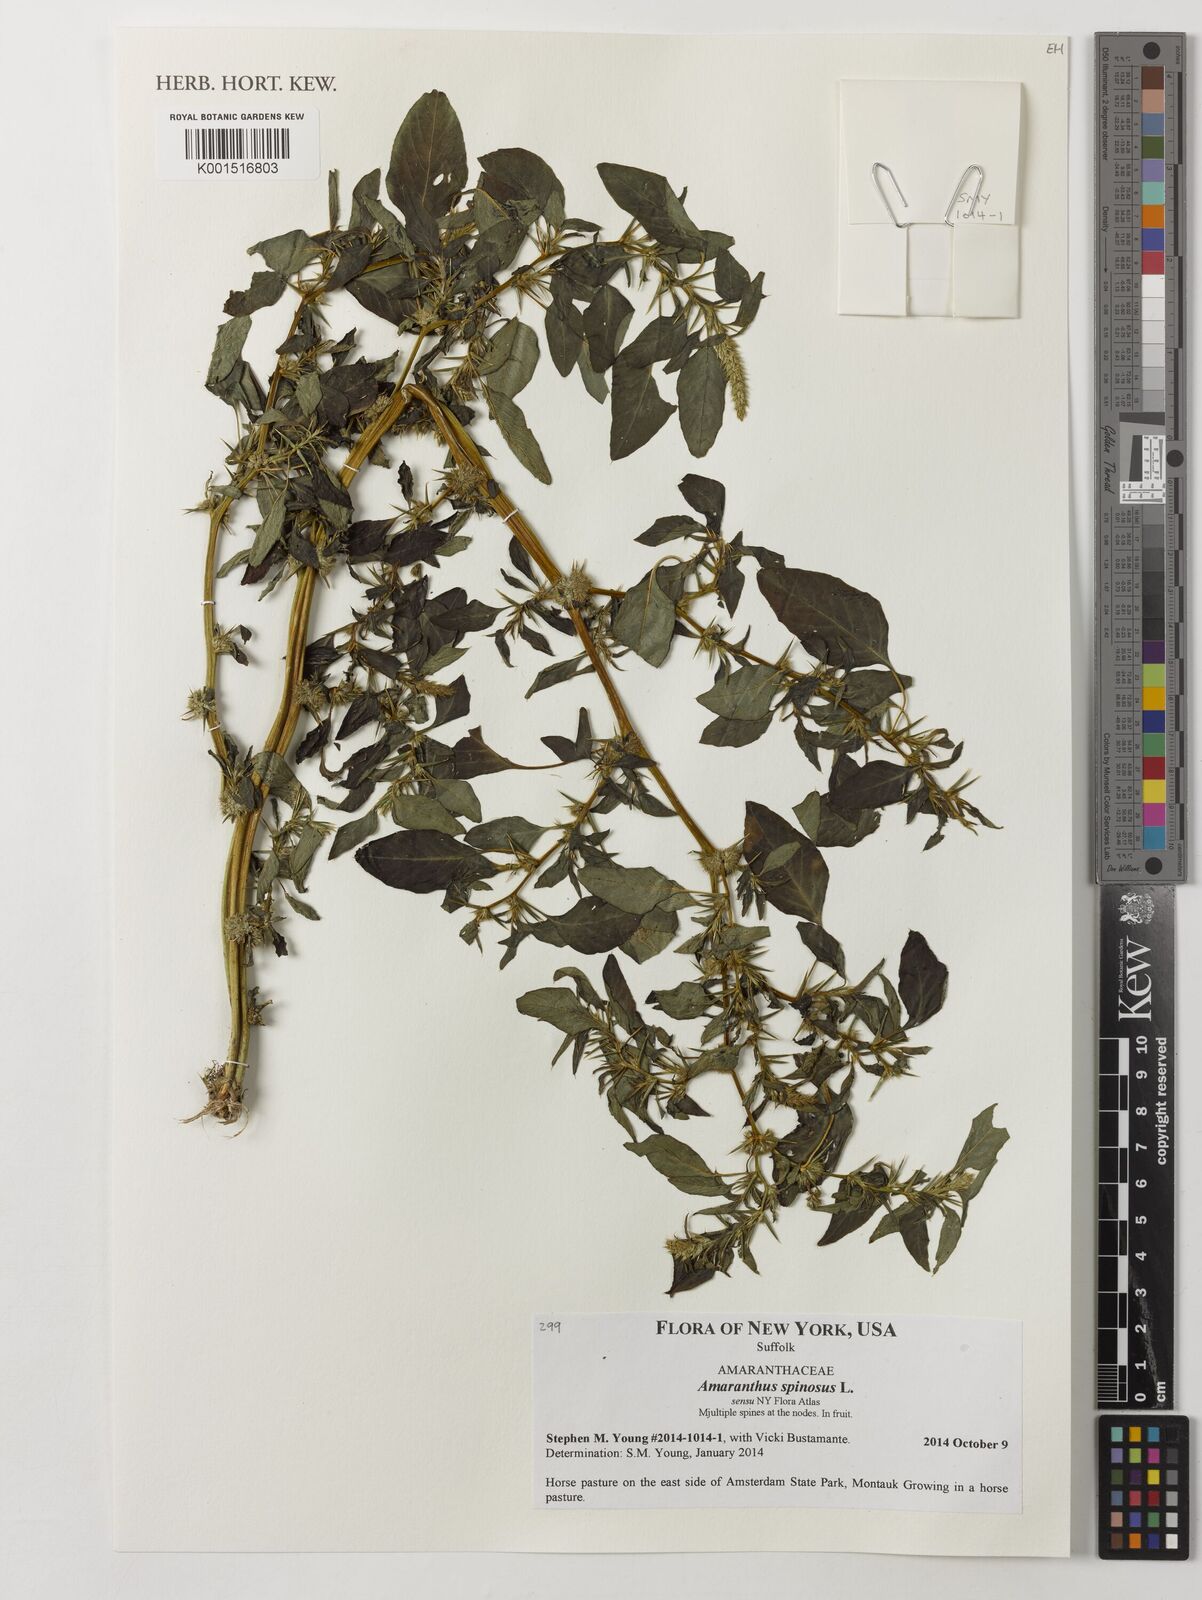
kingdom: Plantae
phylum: Tracheophyta
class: Magnoliopsida
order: Caryophyllales
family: Amaranthaceae
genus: Amaranthus
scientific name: Amaranthus spinosus
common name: Spiny amaranth
